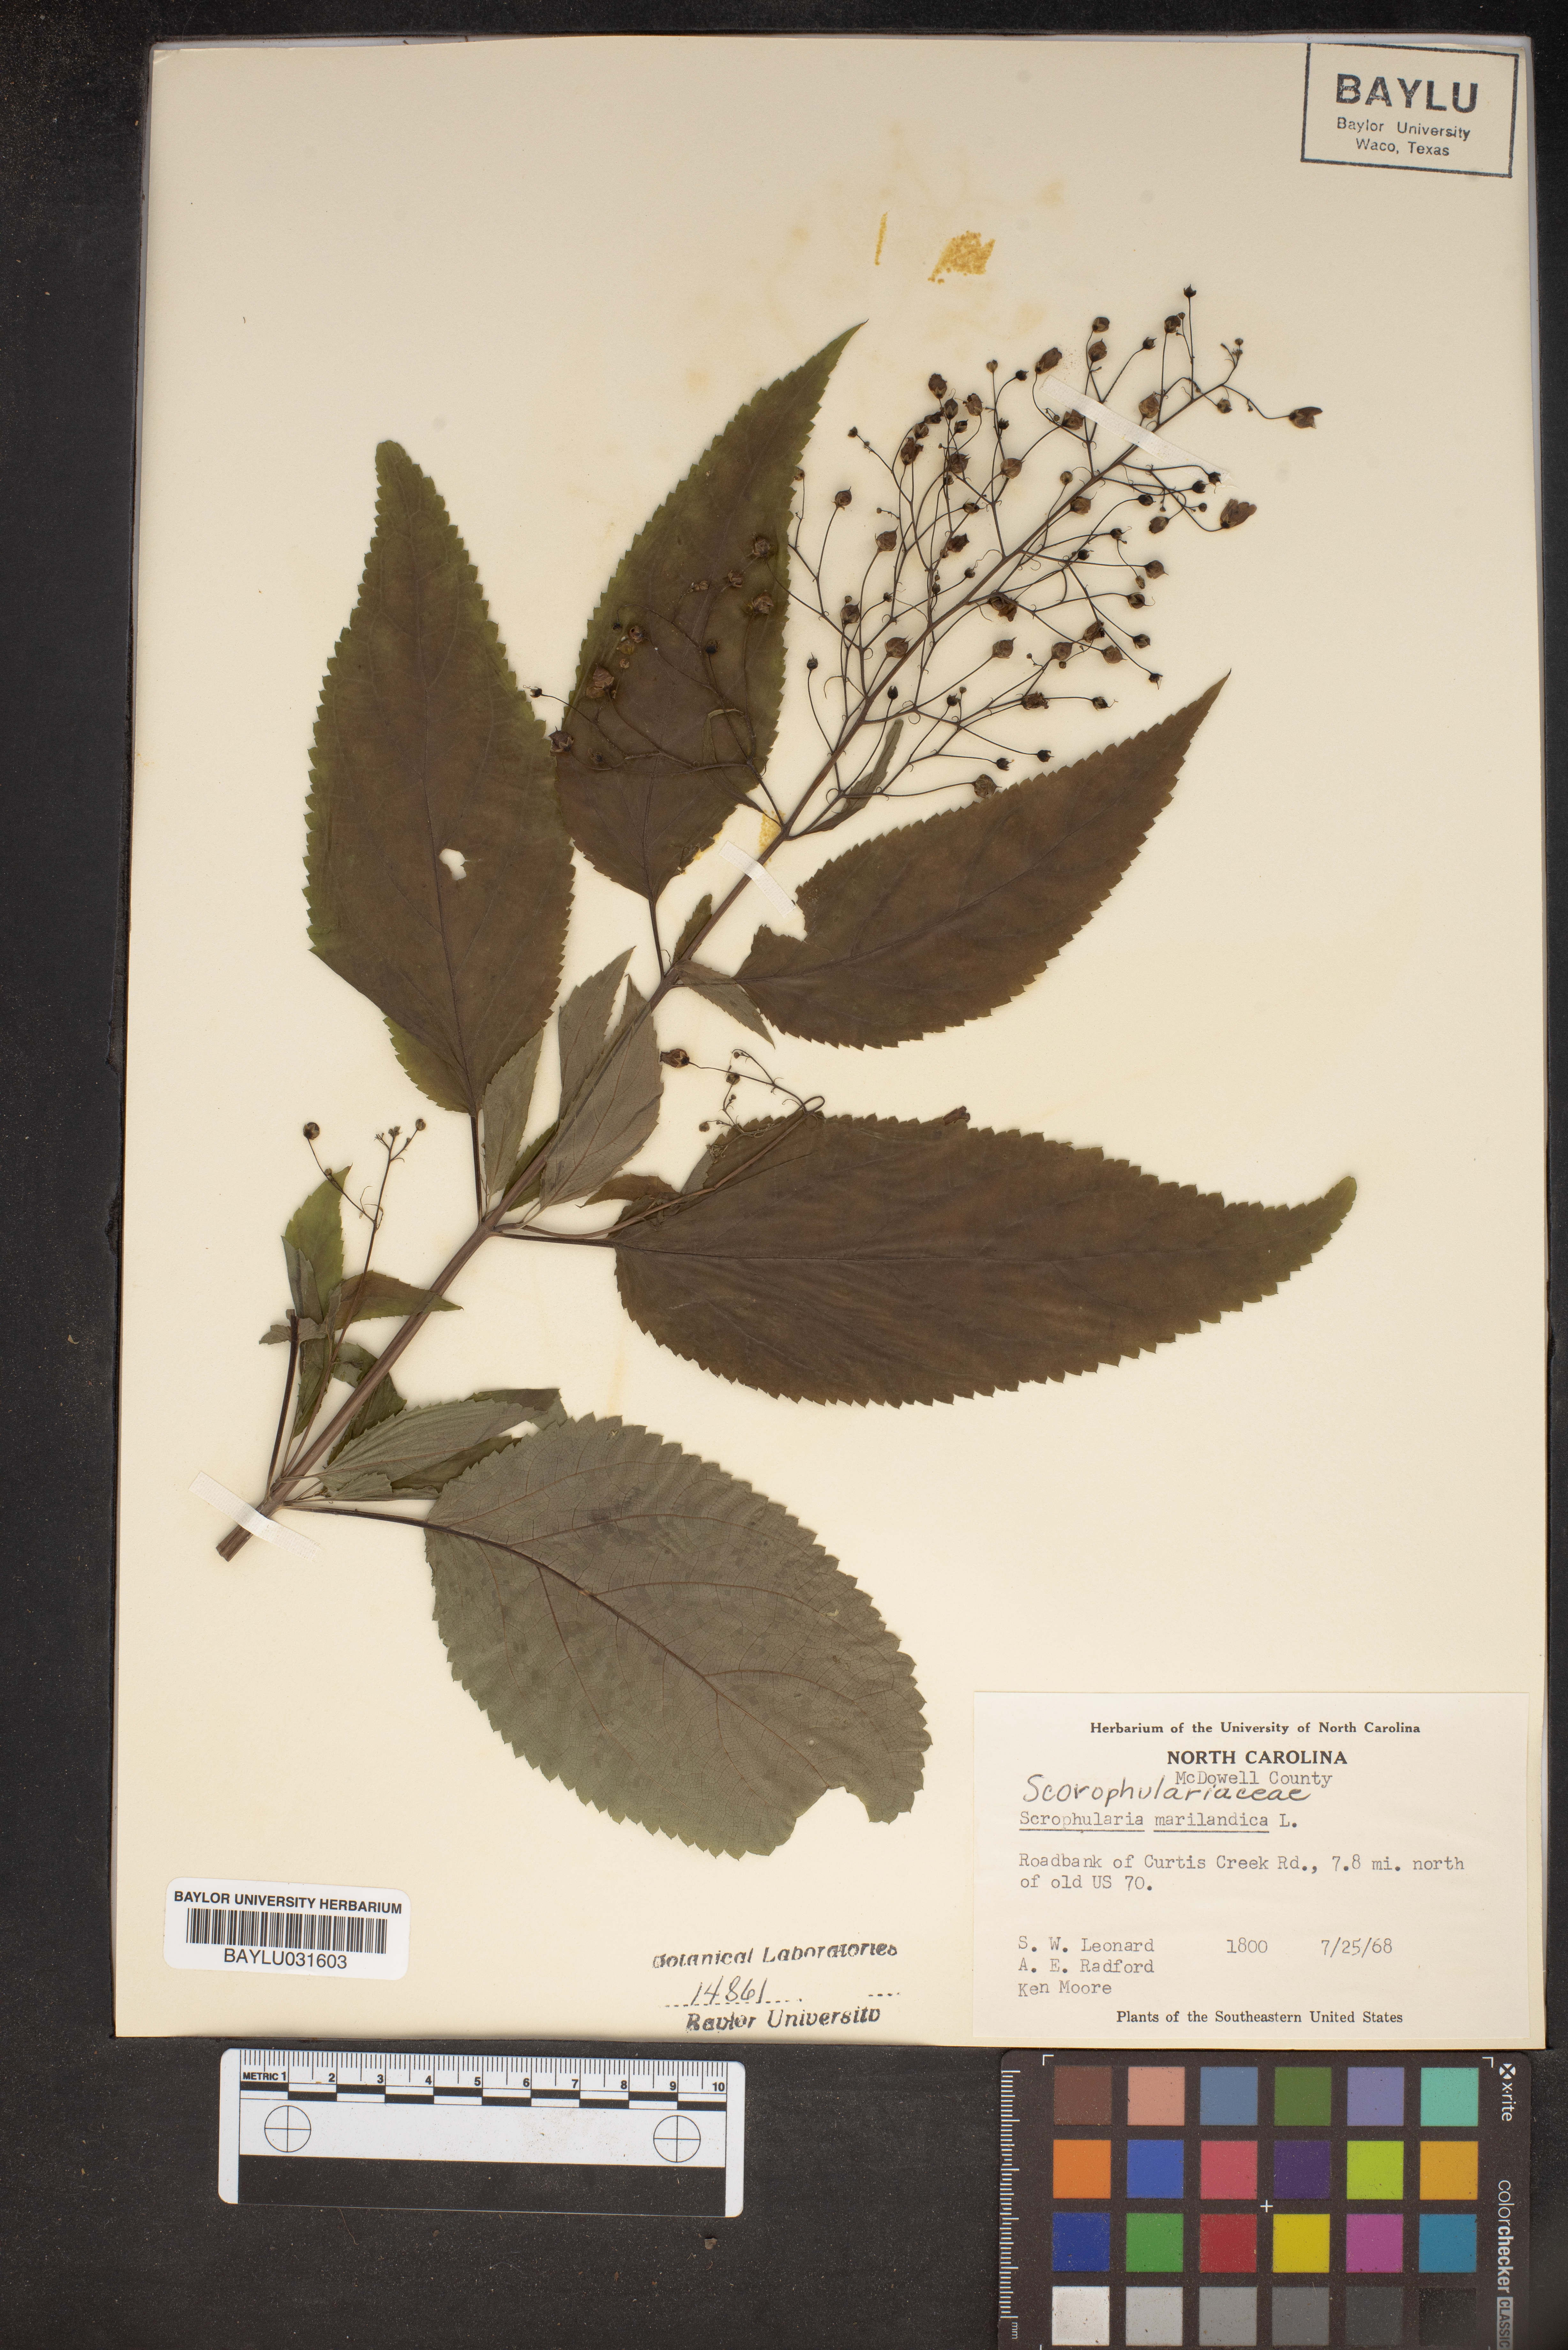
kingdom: Plantae
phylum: Tracheophyta
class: Magnoliopsida
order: Lamiales
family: Scrophulariaceae
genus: Scrophularia
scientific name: Scrophularia marilandica
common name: Eastern figwort
